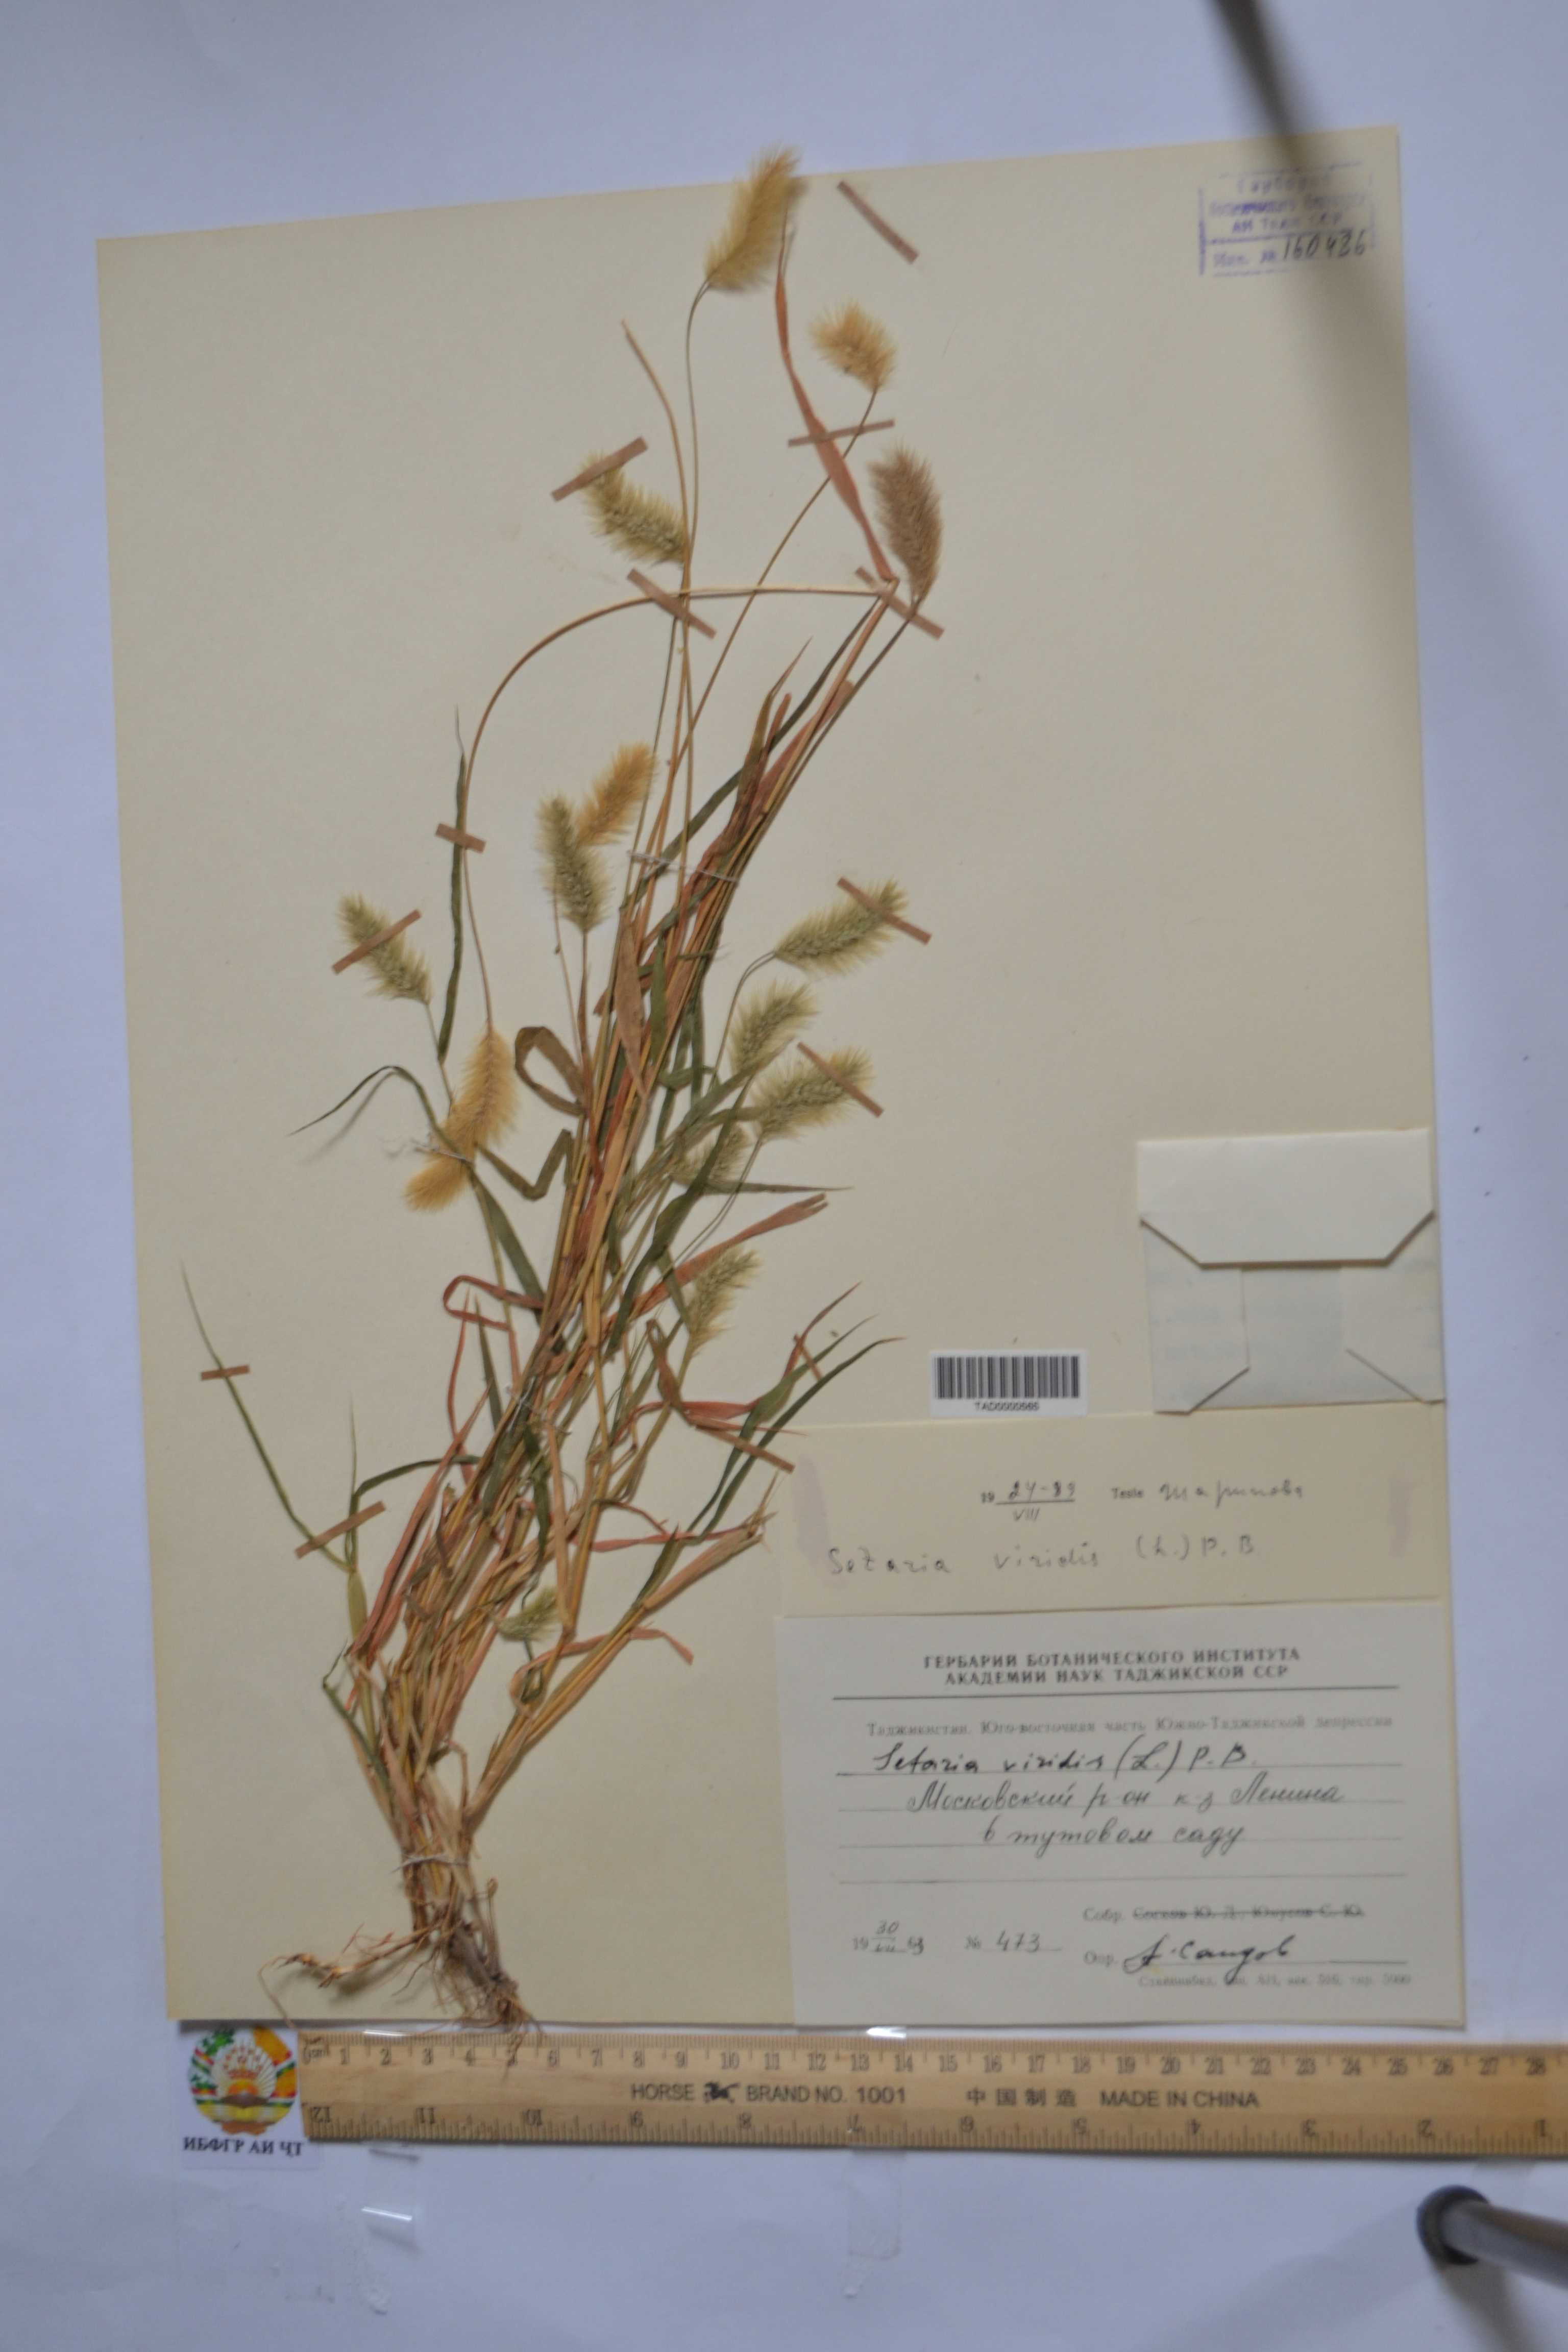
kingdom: Plantae
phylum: Tracheophyta
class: Liliopsida
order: Poales
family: Poaceae
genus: Setaria
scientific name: Setaria viridis
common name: Green bristlegrass
